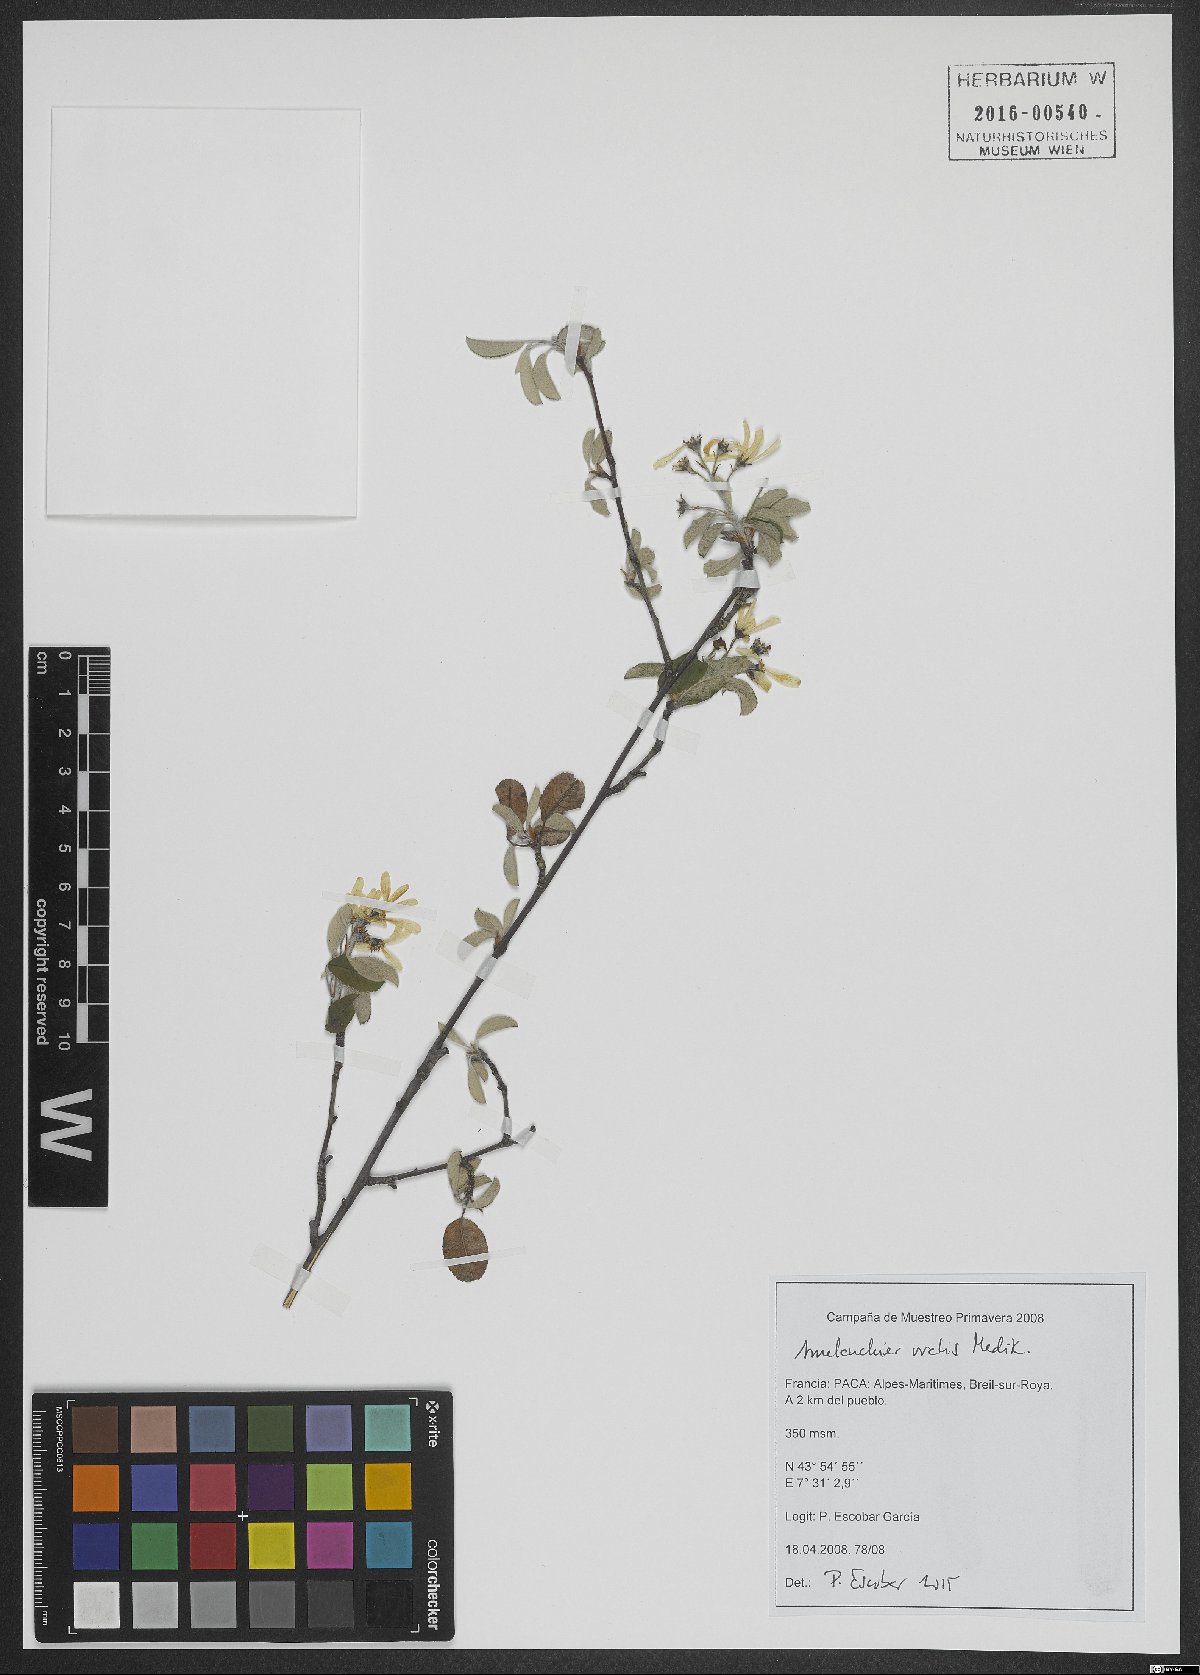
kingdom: Plantae
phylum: Tracheophyta
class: Magnoliopsida
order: Rosales
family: Rosaceae
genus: Amelanchier
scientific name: Amelanchier ovalis
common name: Serviceberry
